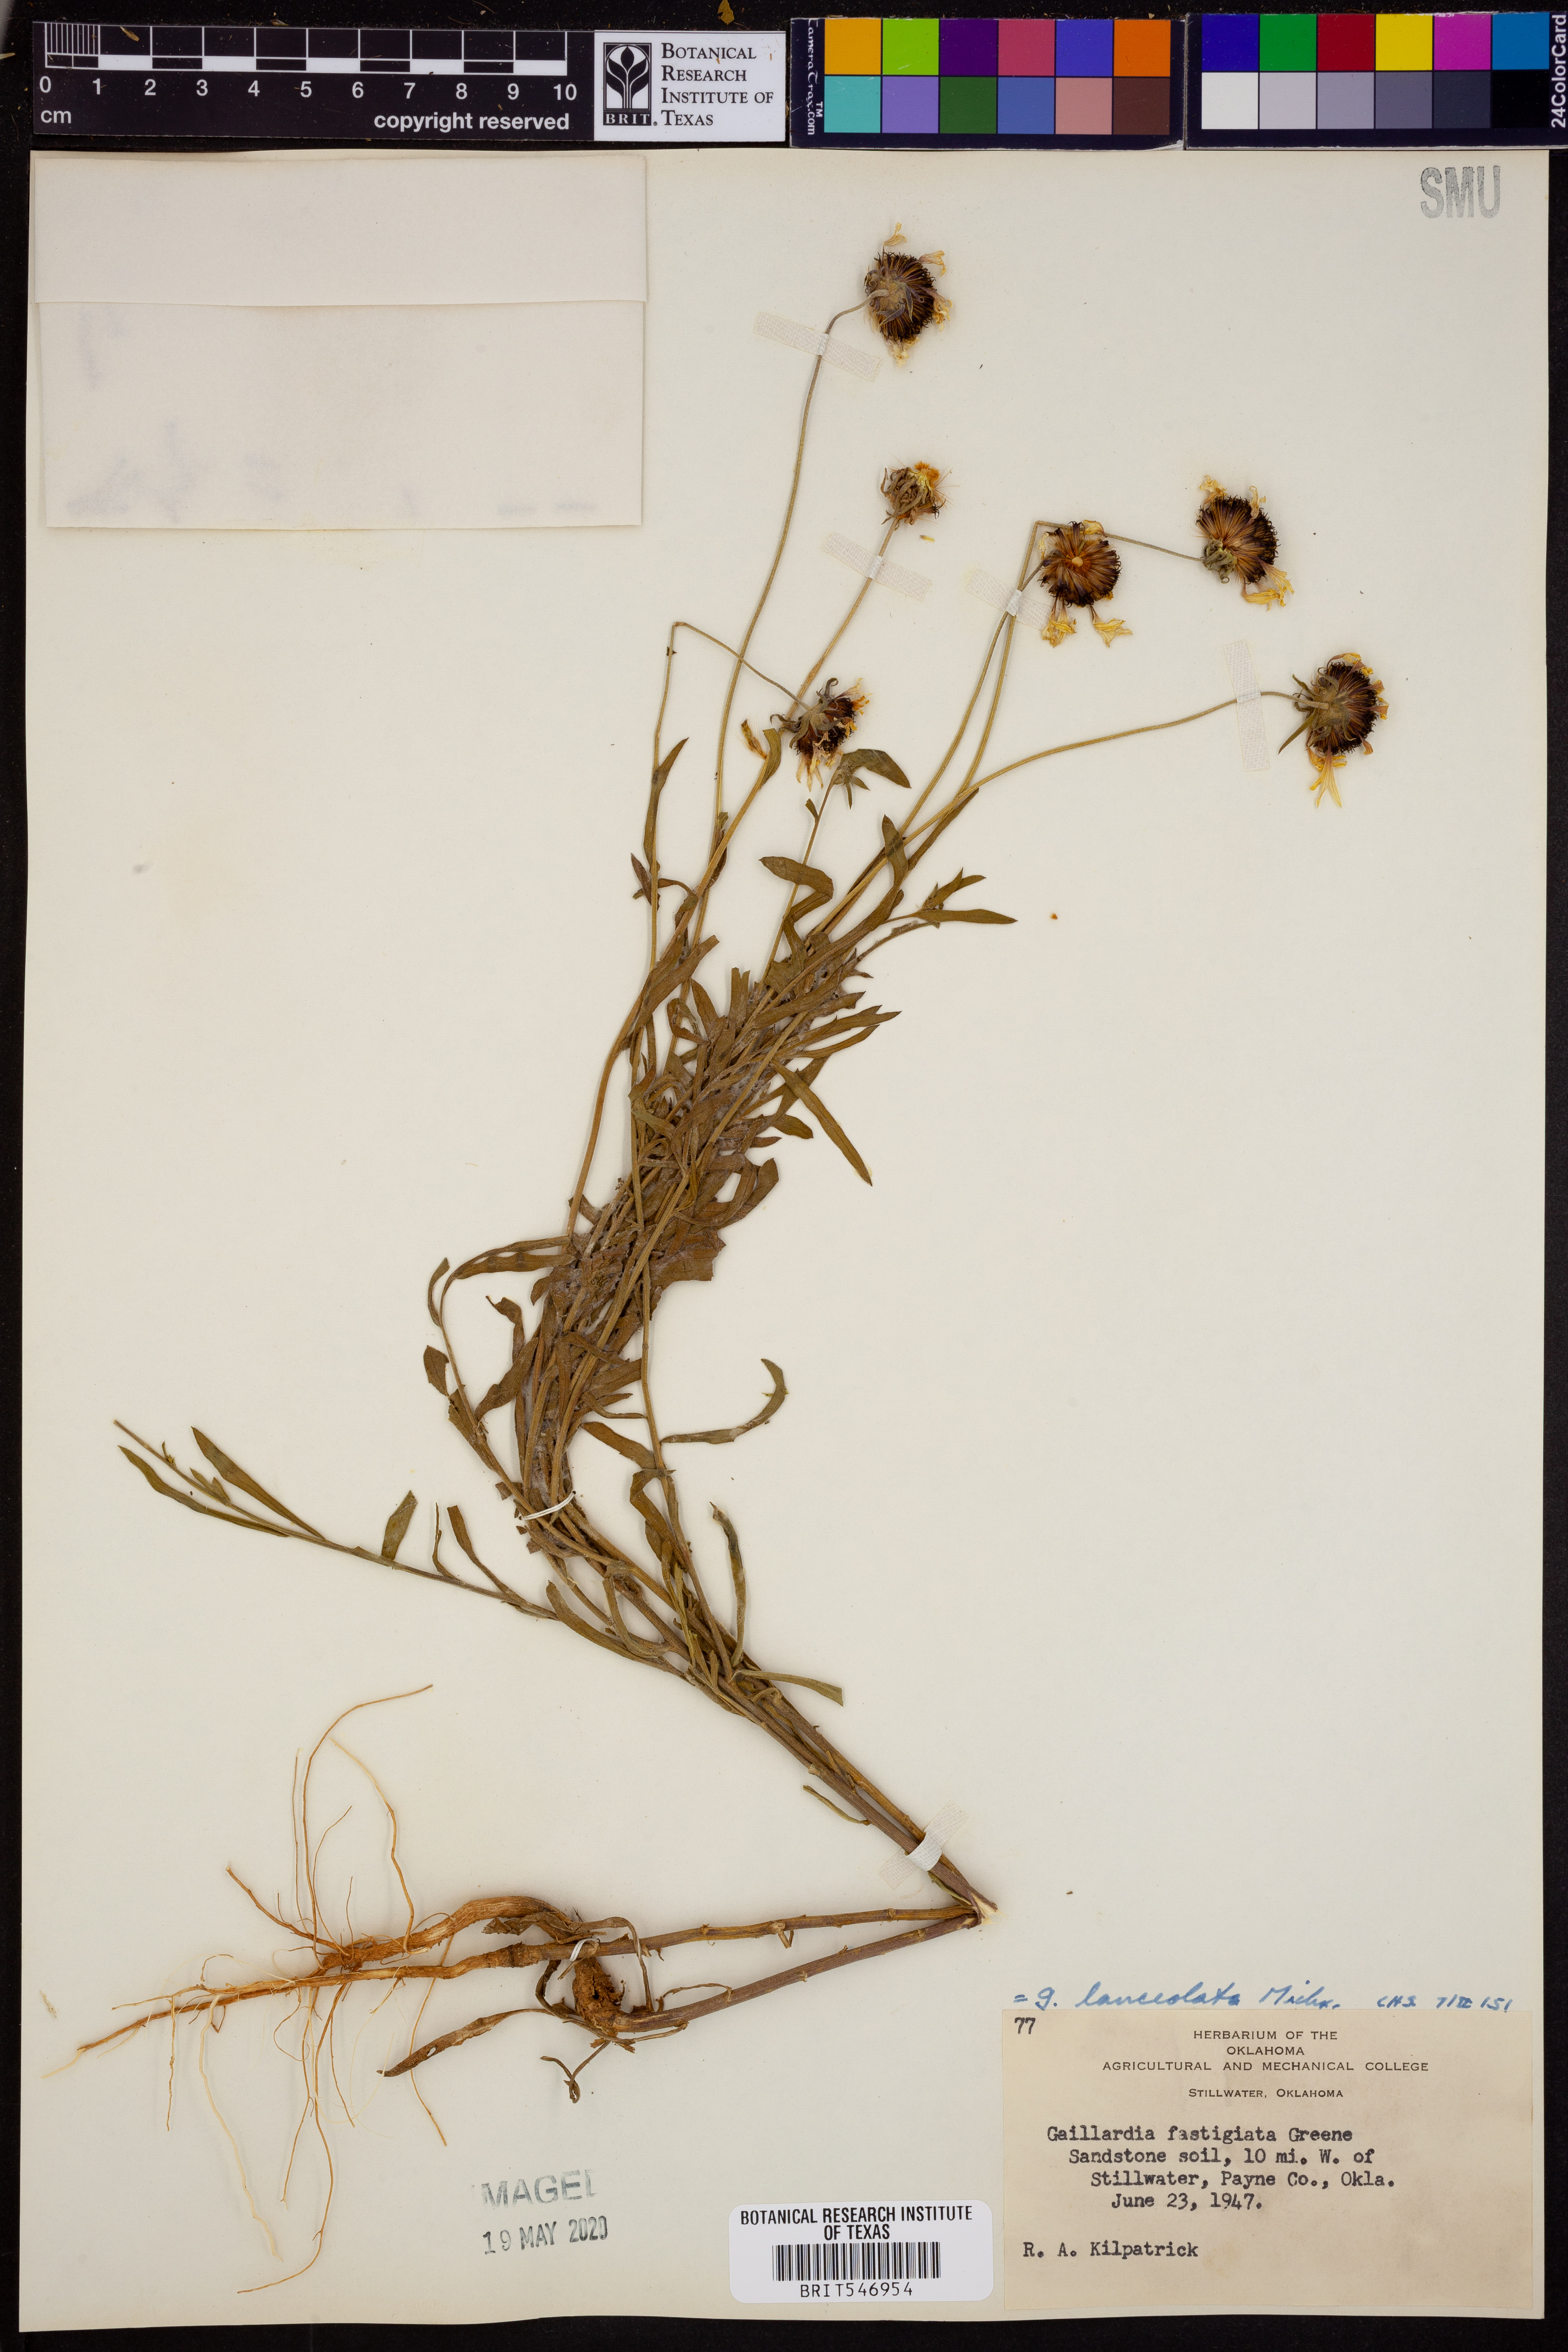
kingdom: Plantae
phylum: Tracheophyta
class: Magnoliopsida
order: Asterales
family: Asteraceae
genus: Gaillardia
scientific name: Gaillardia aestivalis
